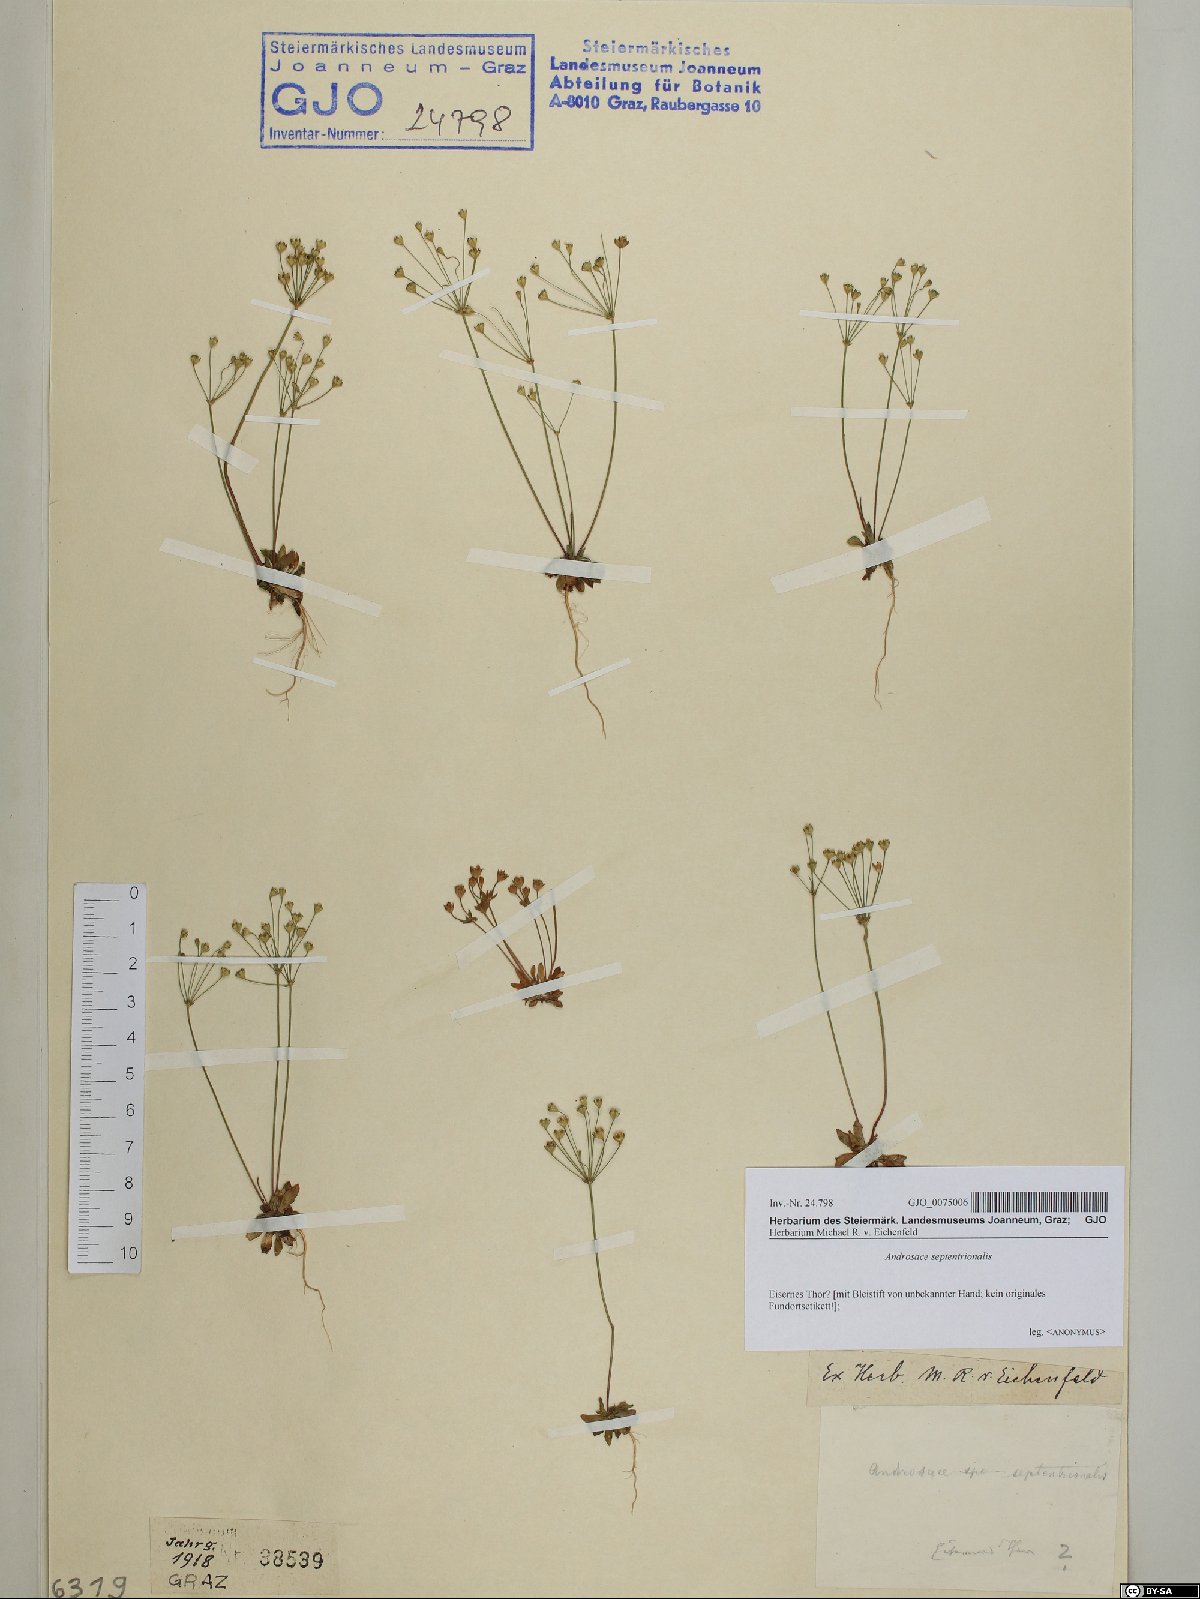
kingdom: Plantae
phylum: Tracheophyta
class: Magnoliopsida
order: Ericales
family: Primulaceae
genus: Androsace
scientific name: Androsace septentrionalis
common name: Hairy northern fairy-candelabra
